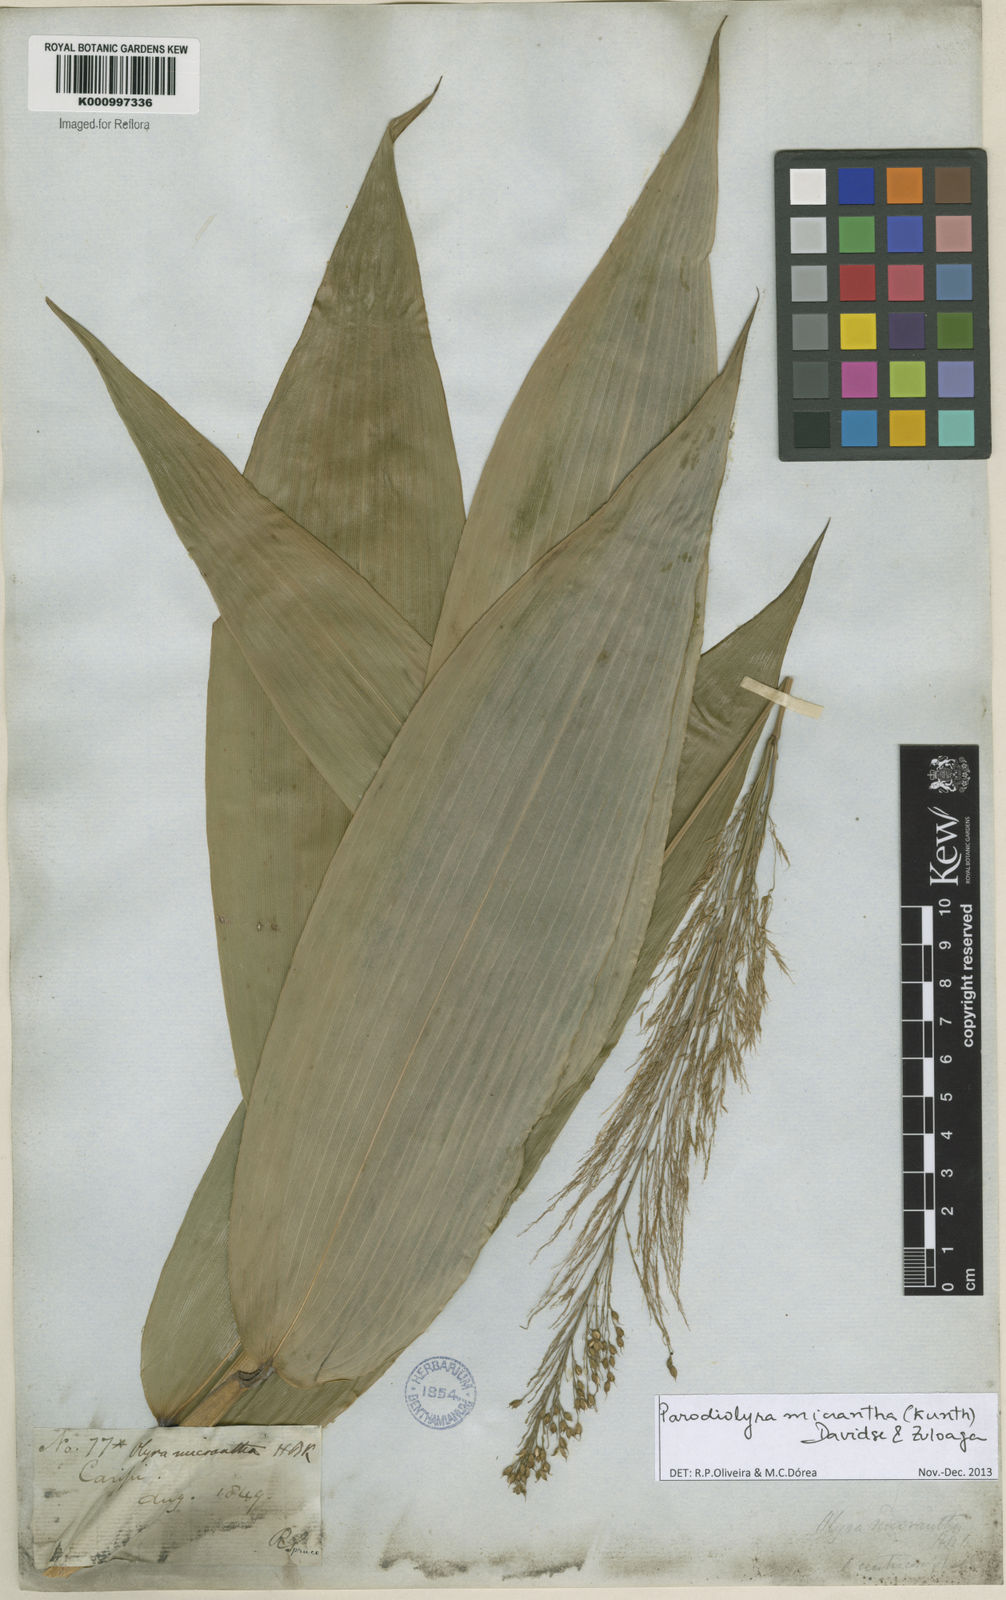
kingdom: Plantae
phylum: Tracheophyta
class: Liliopsida
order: Poales
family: Poaceae
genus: Taquara
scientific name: Taquara micrantha
